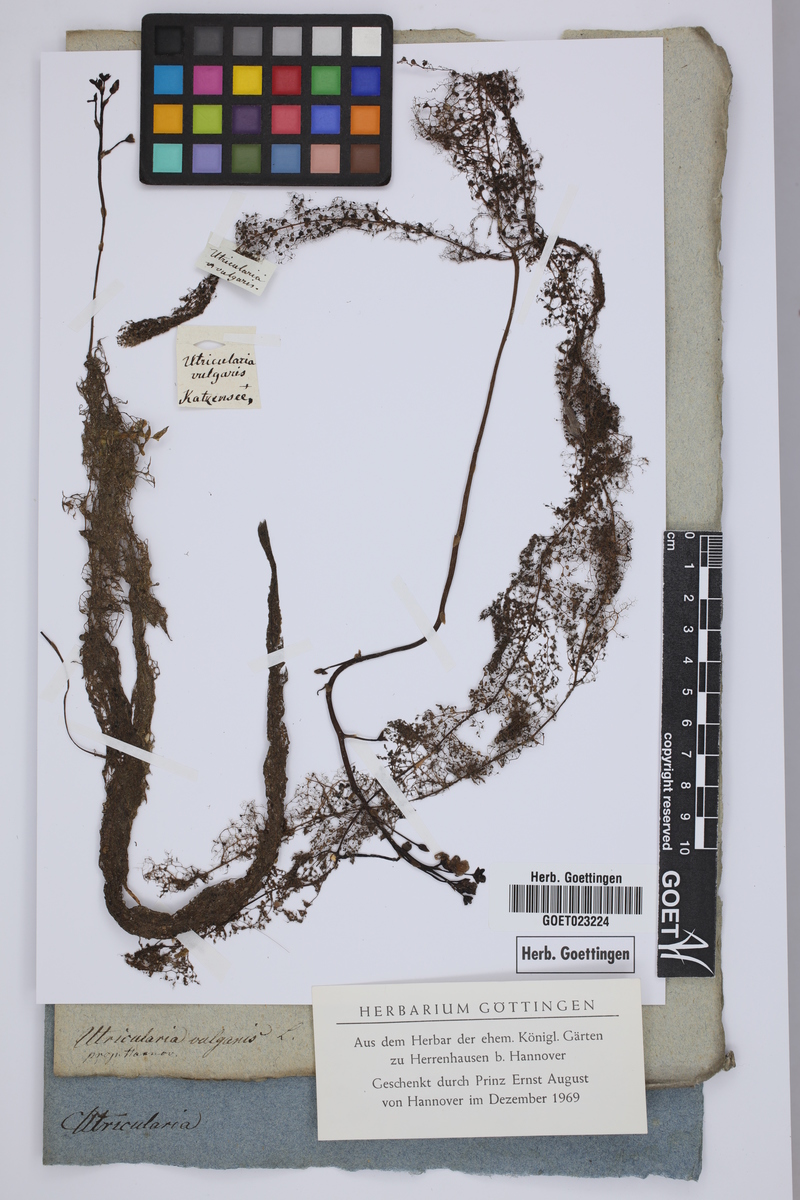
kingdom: Plantae
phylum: Tracheophyta
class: Magnoliopsida
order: Lamiales
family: Lentibulariaceae
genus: Utricularia
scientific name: Utricularia vulgaris
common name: Greater bladderwort
